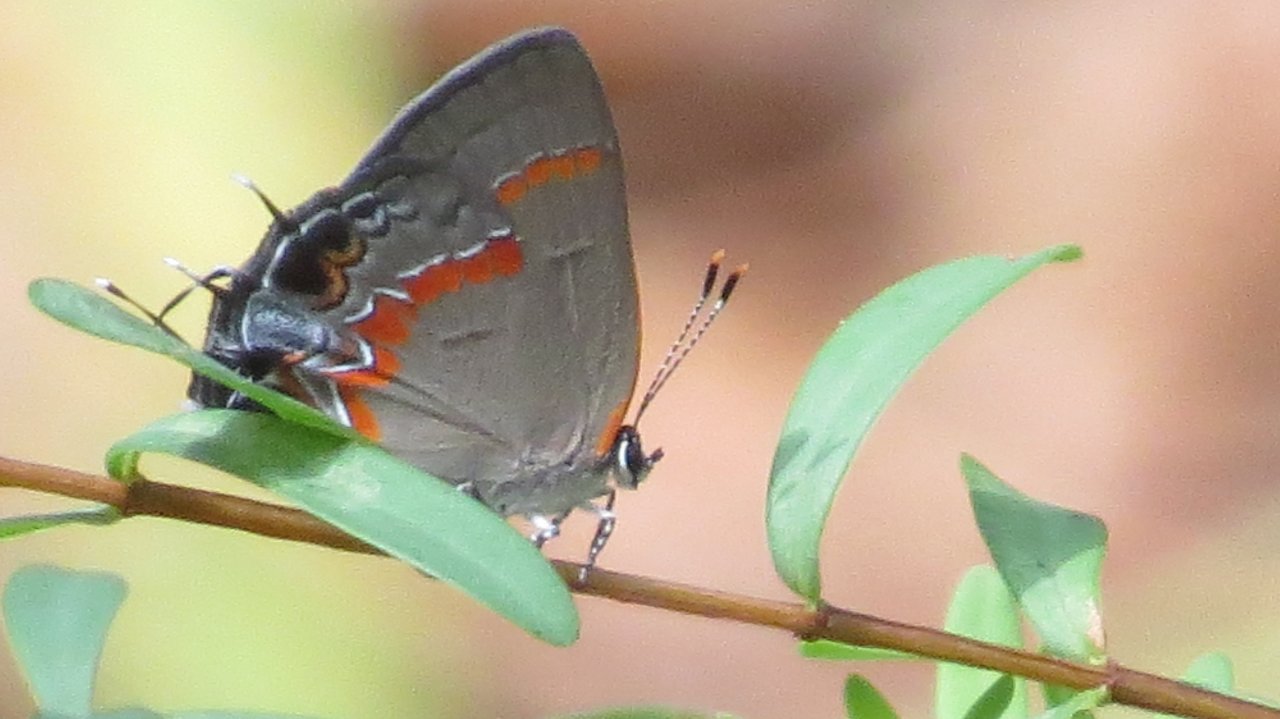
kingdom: Animalia
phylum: Arthropoda
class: Insecta
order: Lepidoptera
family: Lycaenidae
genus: Calycopis
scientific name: Calycopis cecrops
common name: Red-banded Hairstreak
